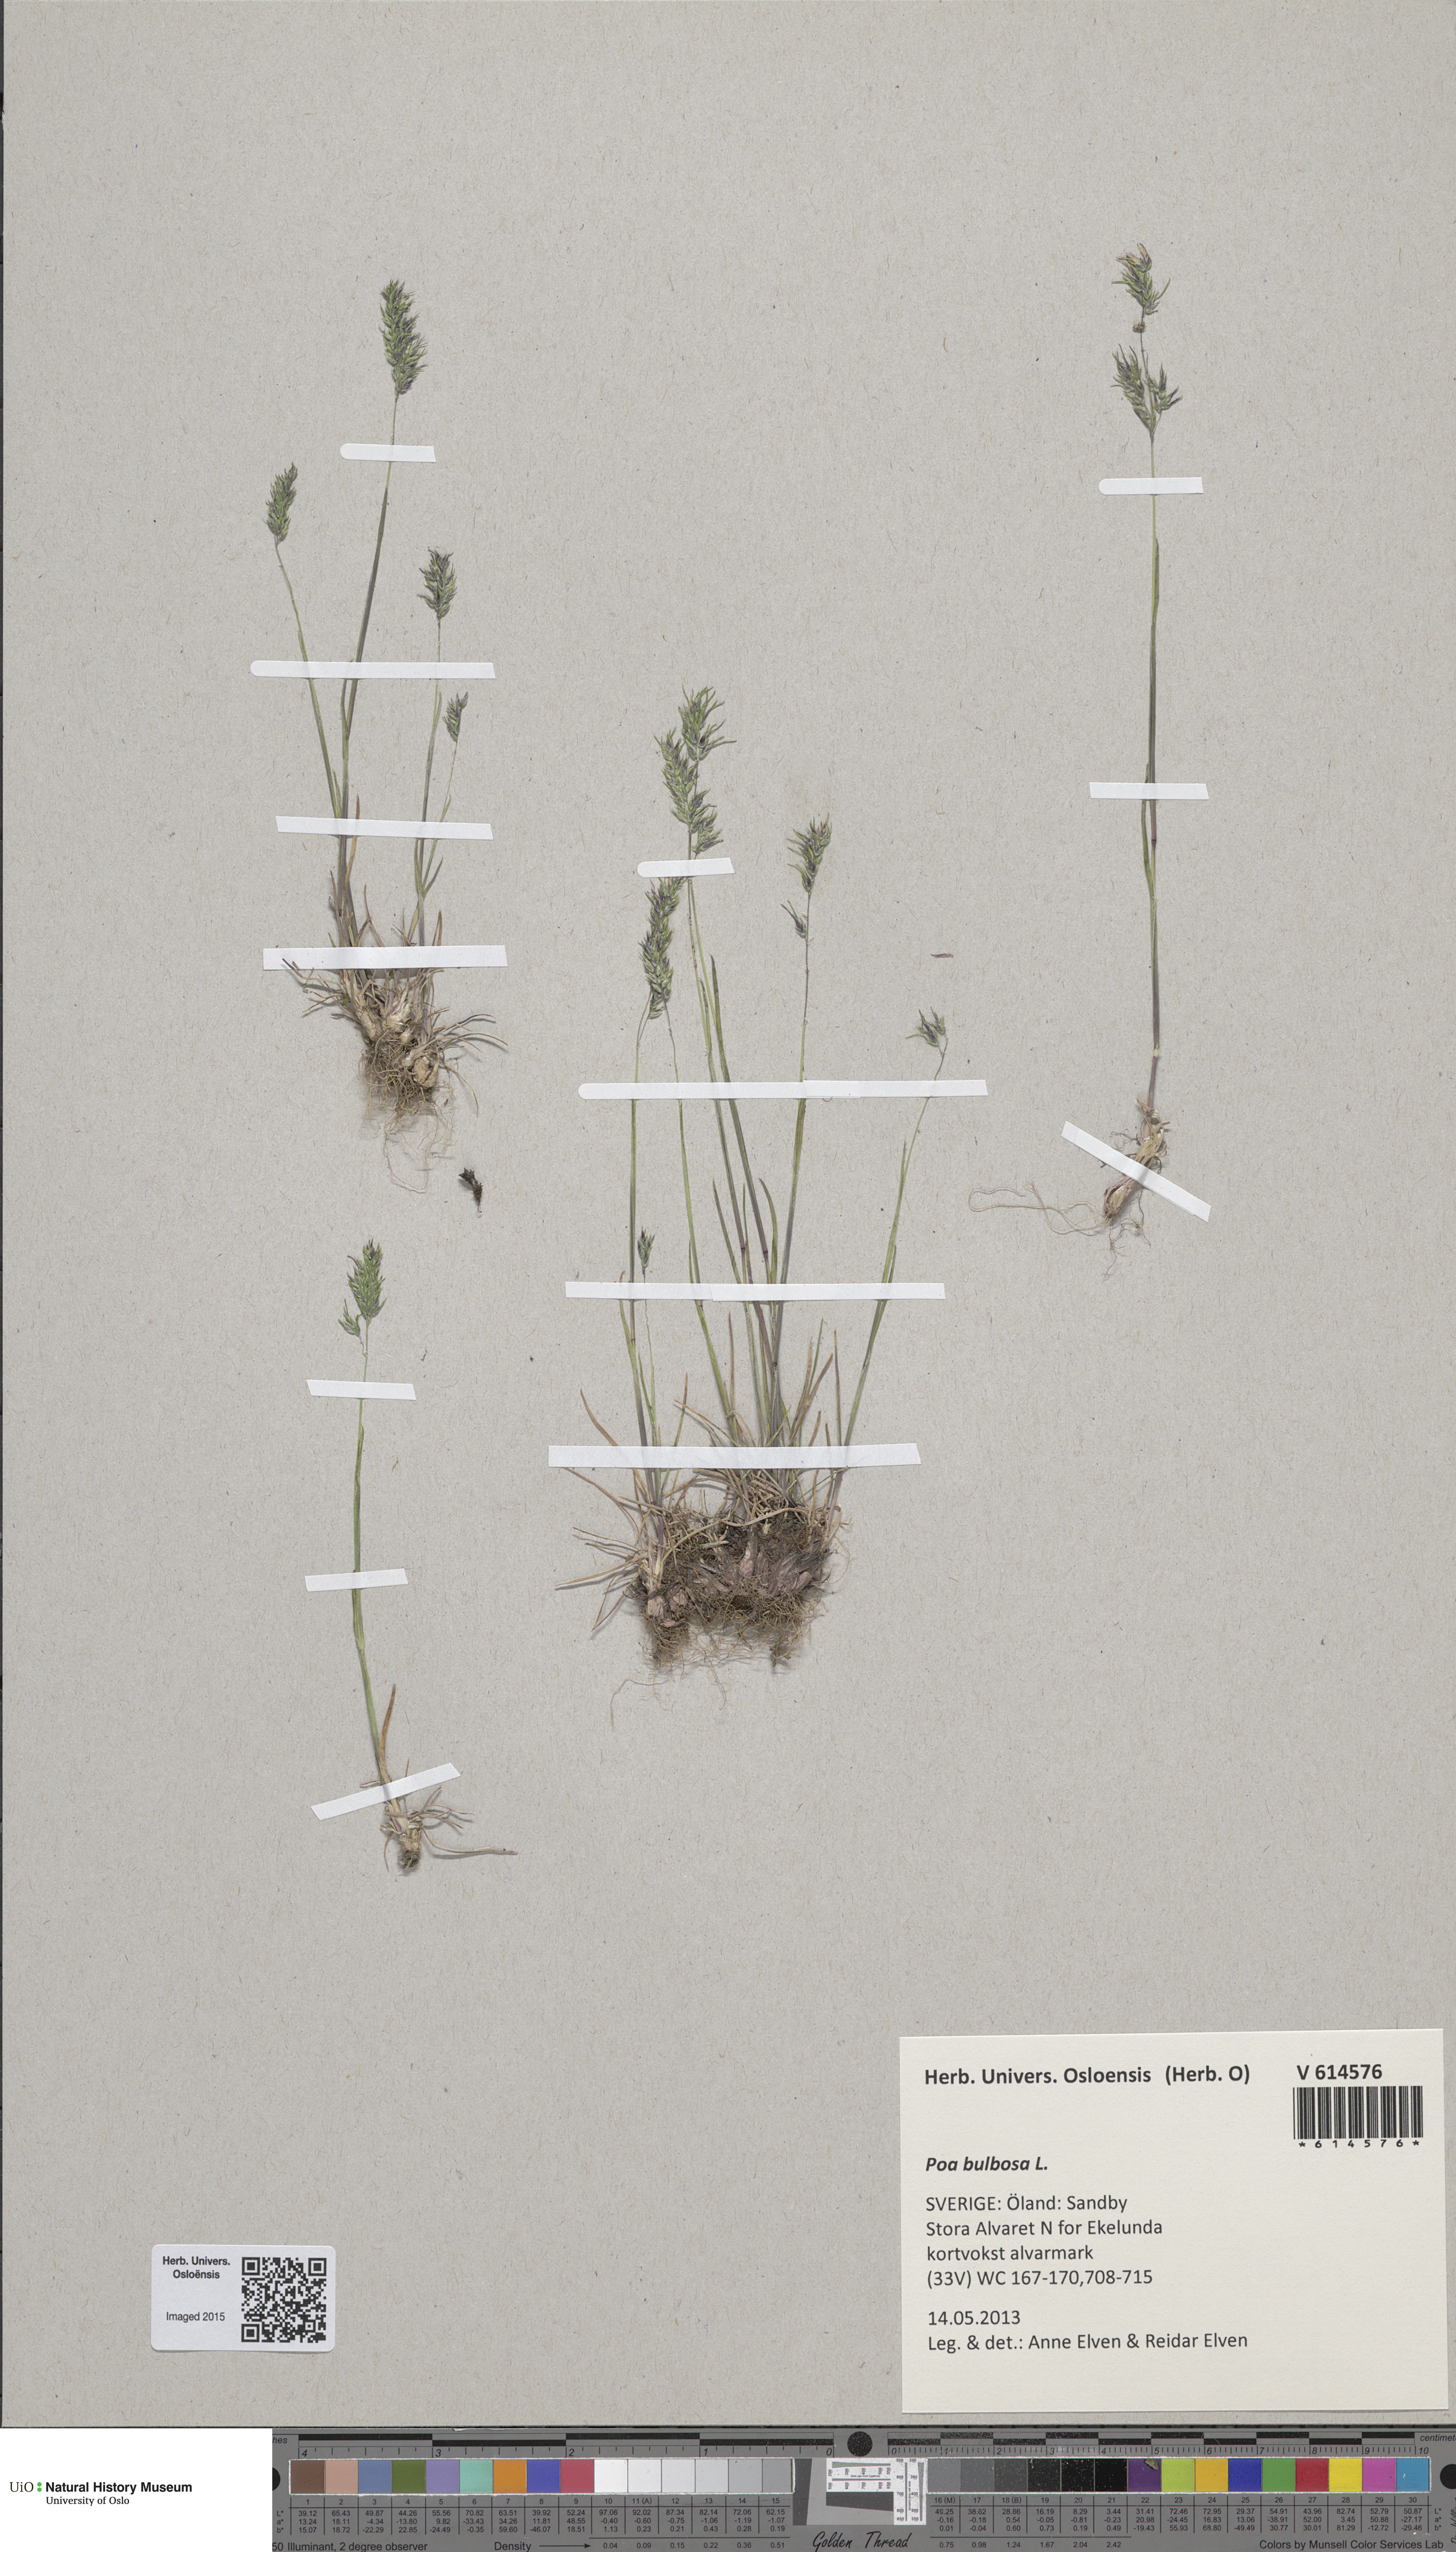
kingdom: Plantae
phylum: Tracheophyta
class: Liliopsida
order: Poales
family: Poaceae
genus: Poa
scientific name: Poa bulbosa
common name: Bulbous bluegrass
